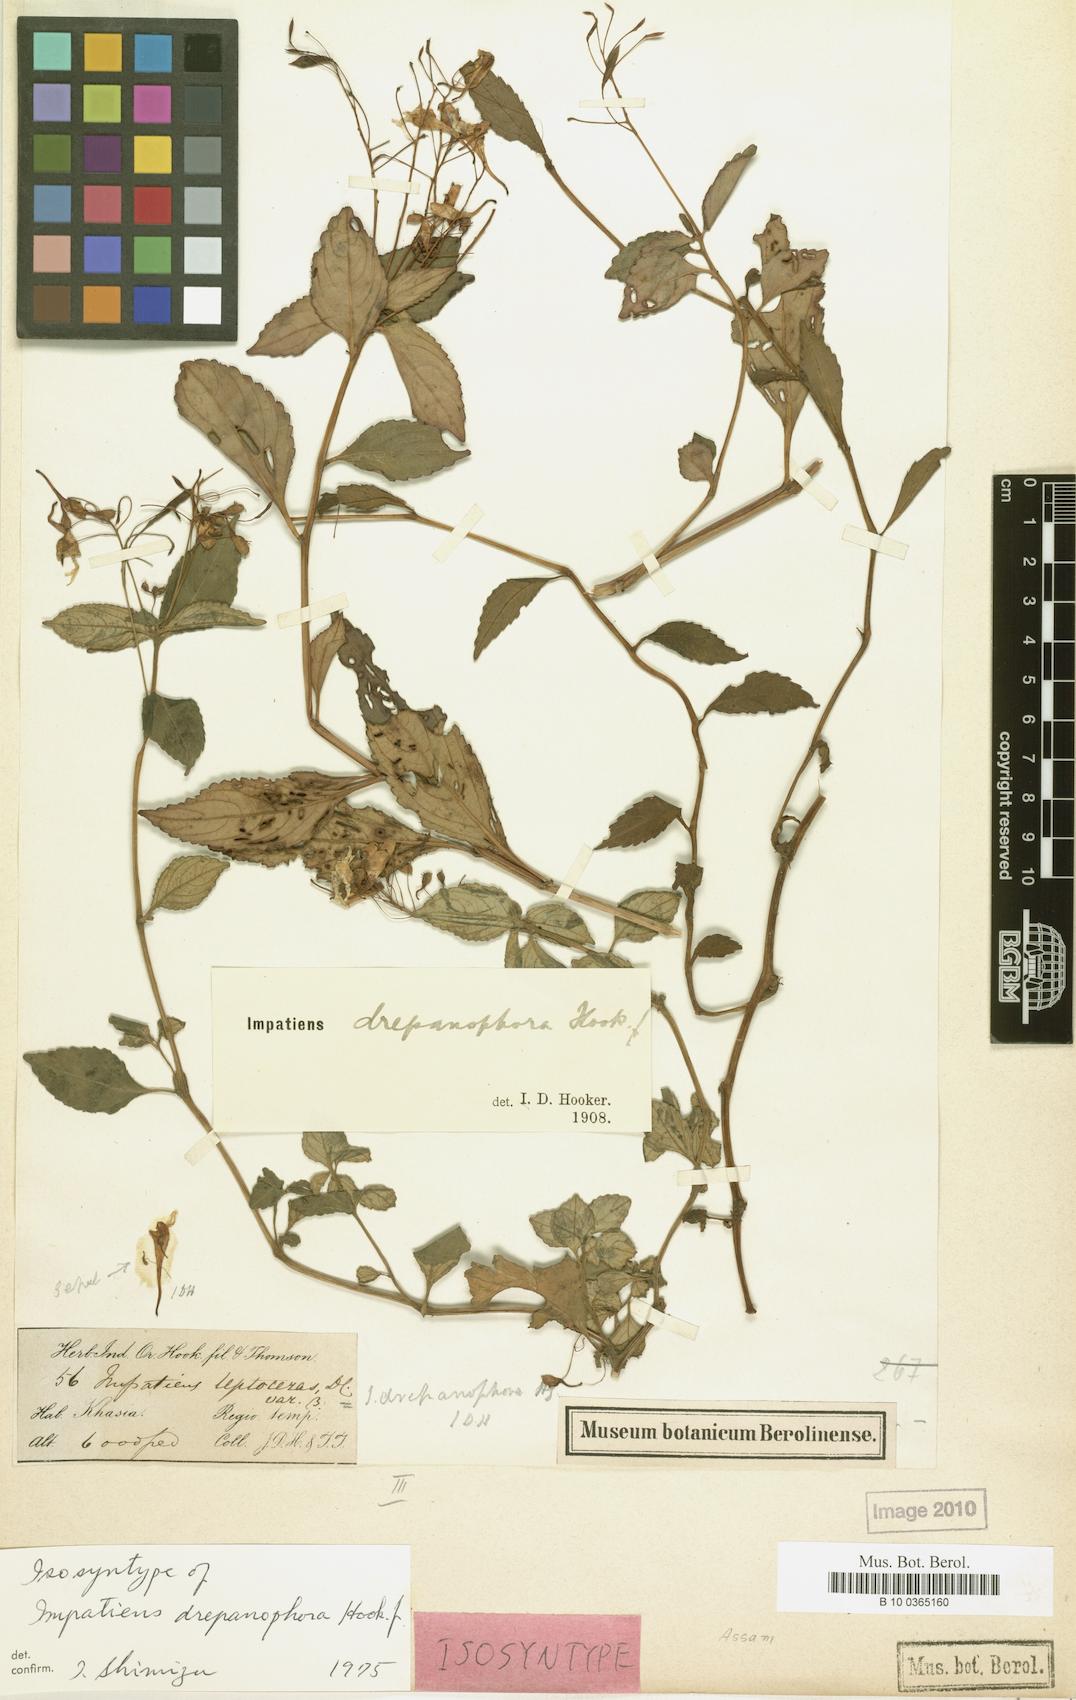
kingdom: Plantae
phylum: Tracheophyta
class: Magnoliopsida
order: Ericales
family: Balsaminaceae
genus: Impatiens
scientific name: Impatiens drepanophora
